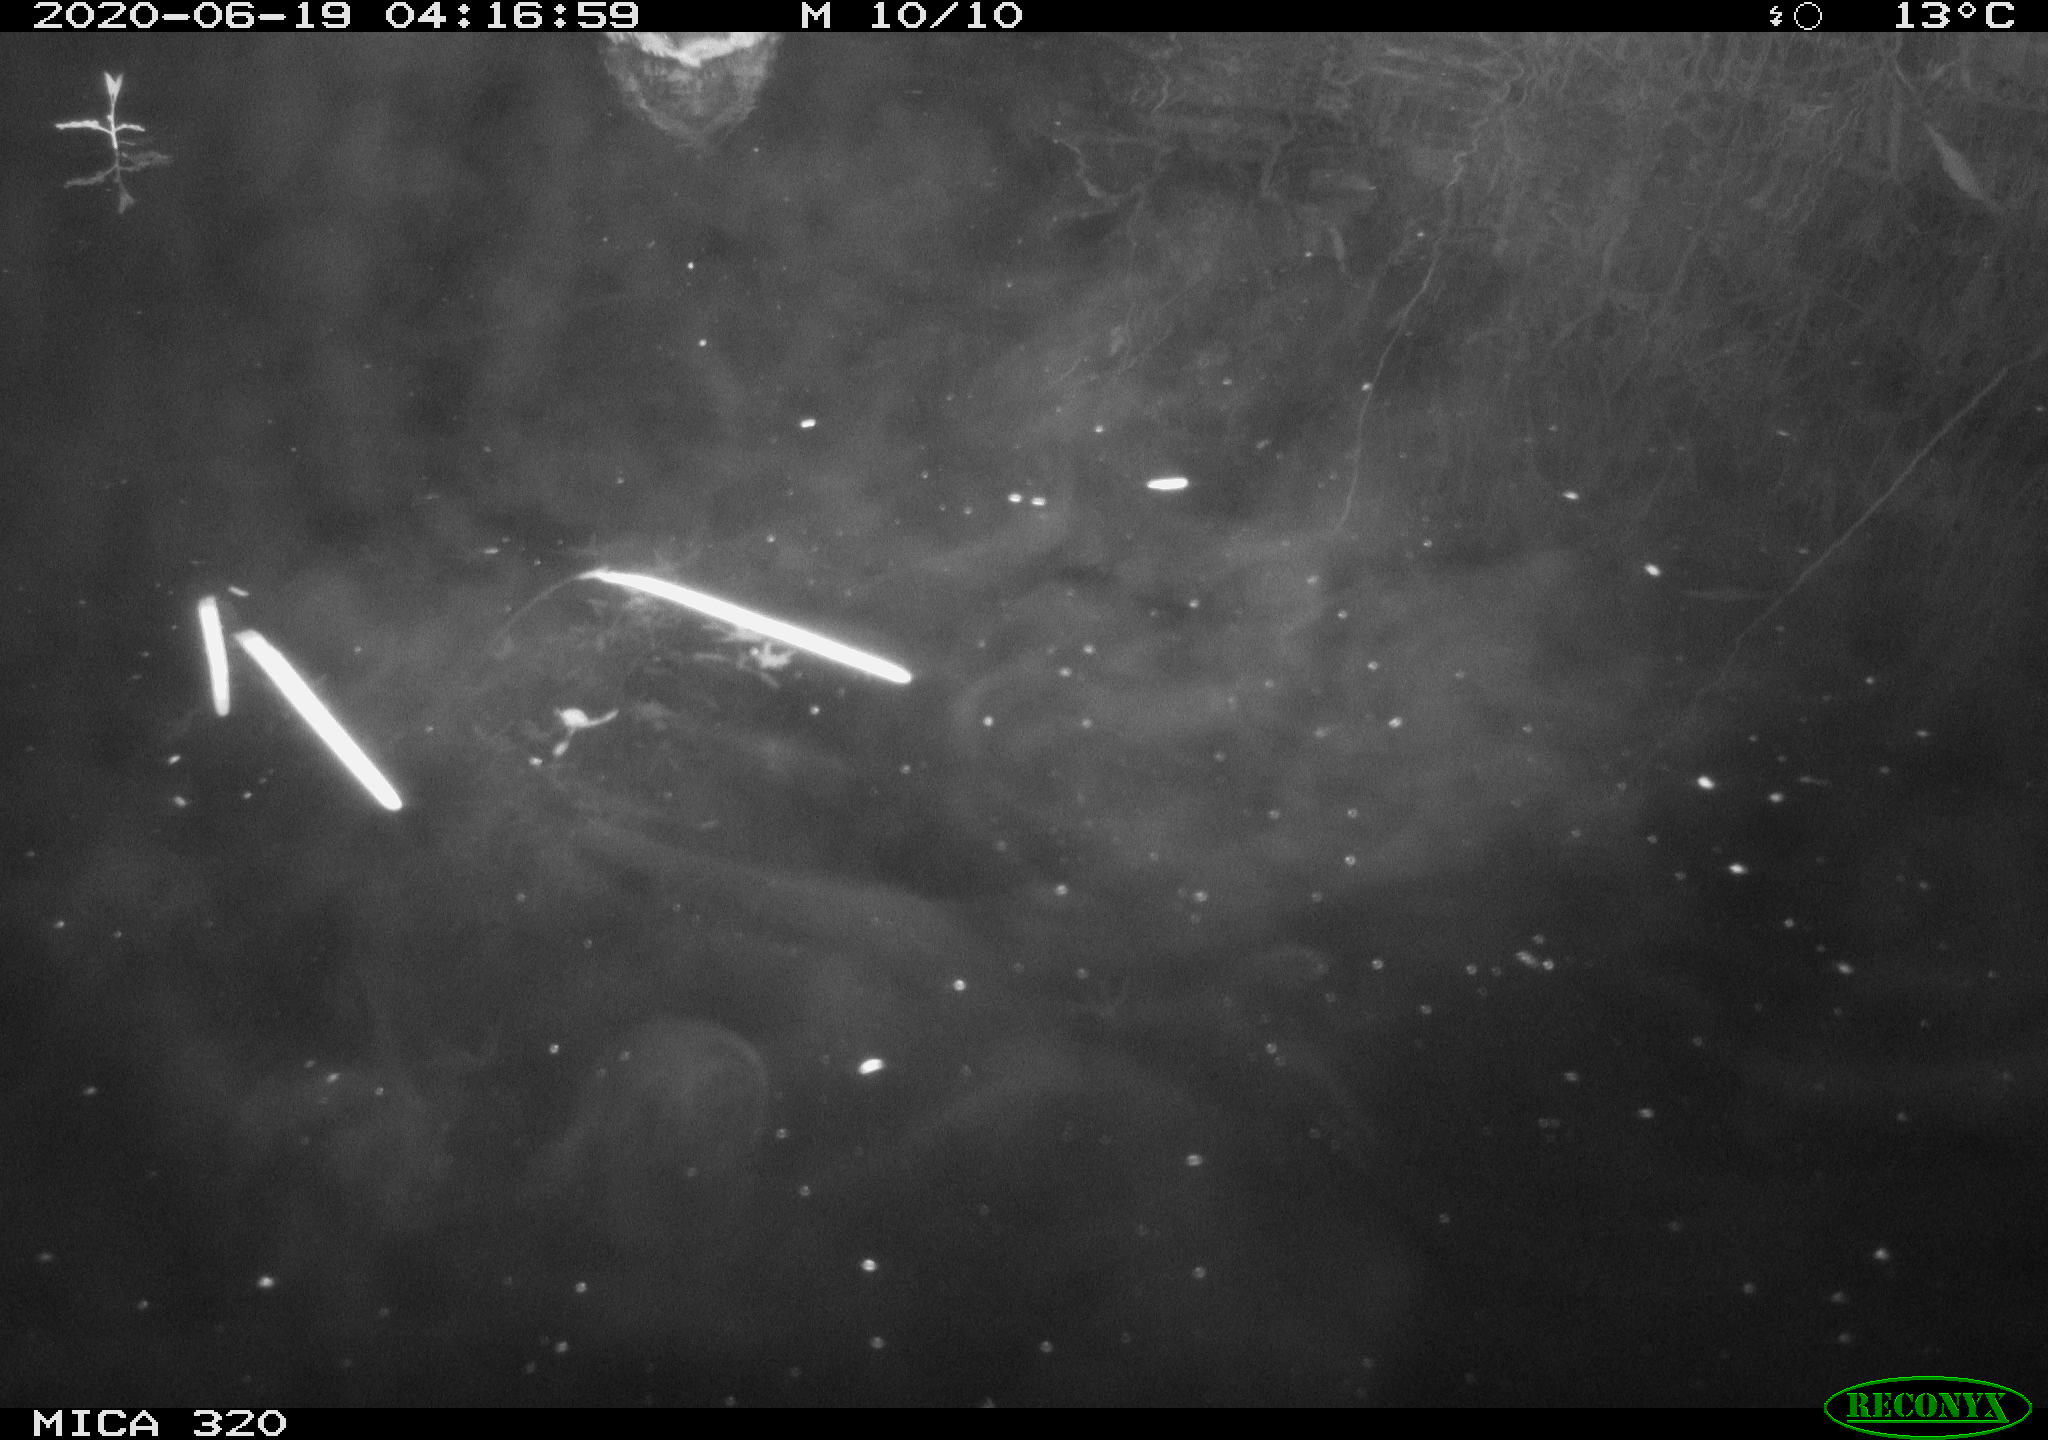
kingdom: Animalia
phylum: Chordata
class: Aves
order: Anseriformes
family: Anatidae
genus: Anas
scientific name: Anas platyrhynchos
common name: Mallard
